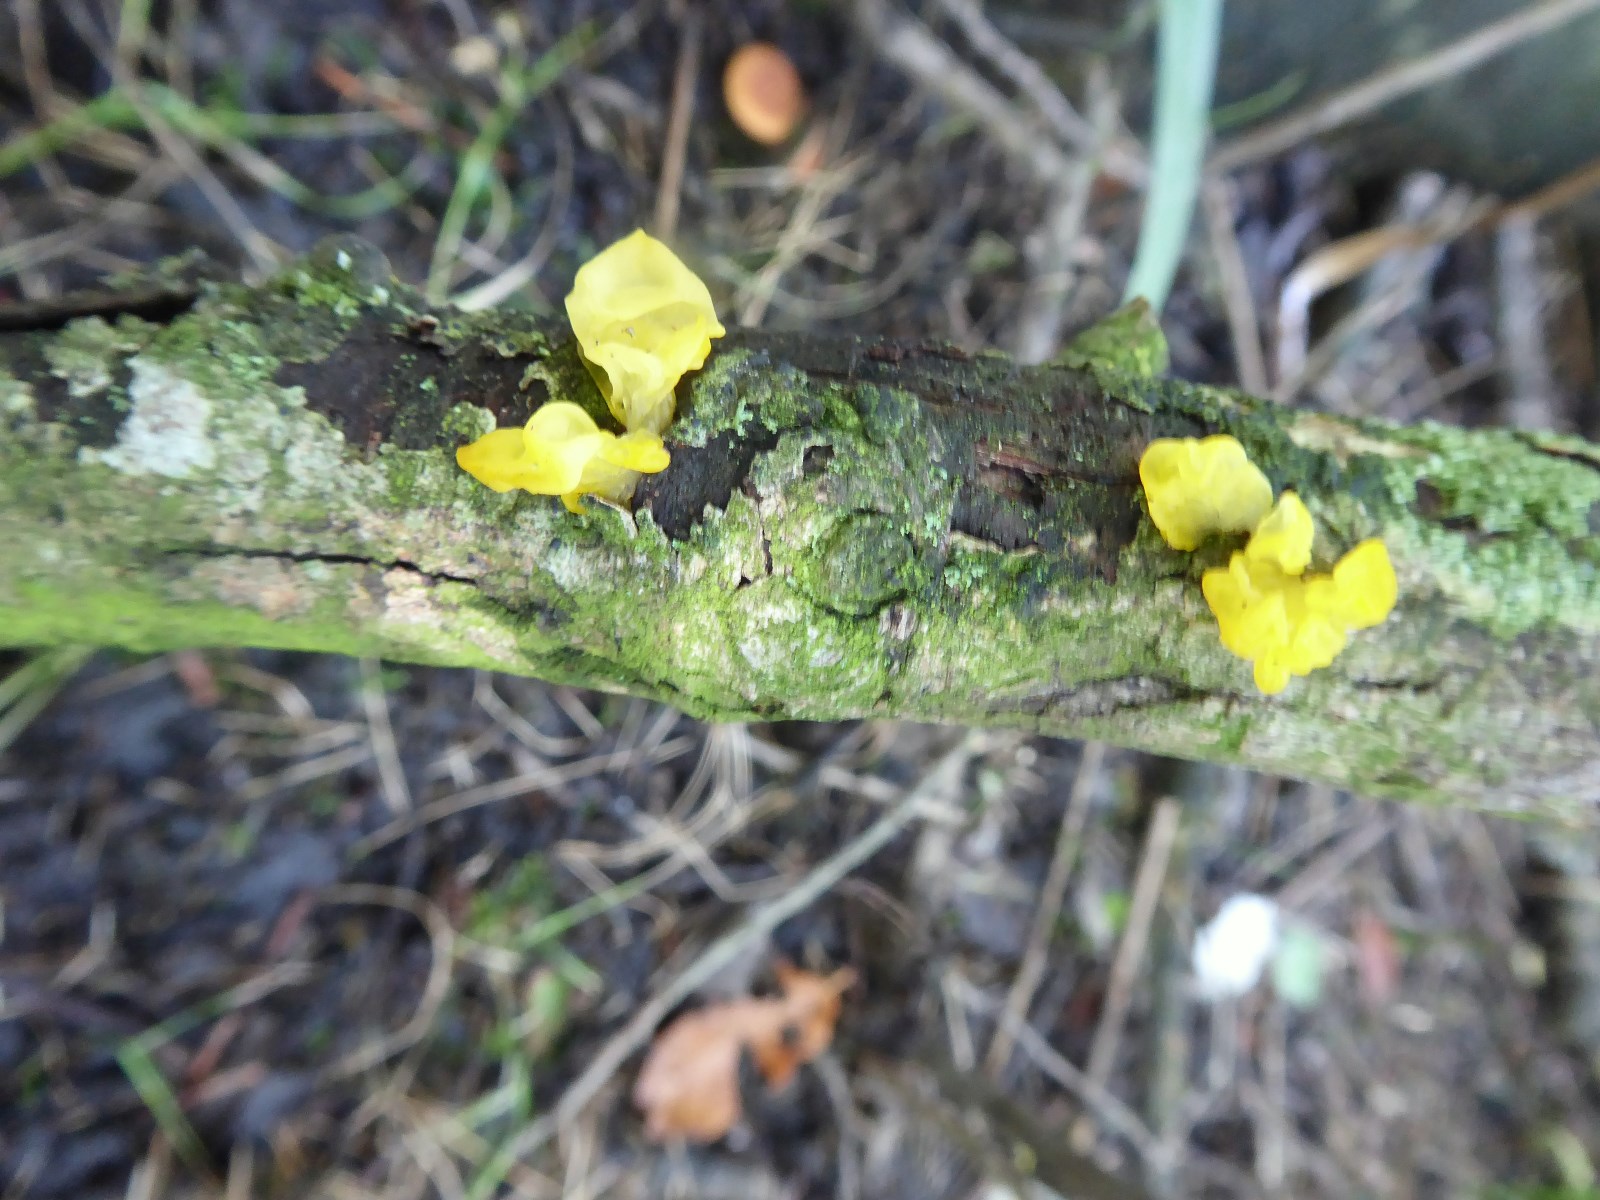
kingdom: Fungi
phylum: Basidiomycota
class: Tremellomycetes
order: Tremellales
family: Tremellaceae
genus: Tremella
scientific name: Tremella mesenterica
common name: gul bævresvamp
